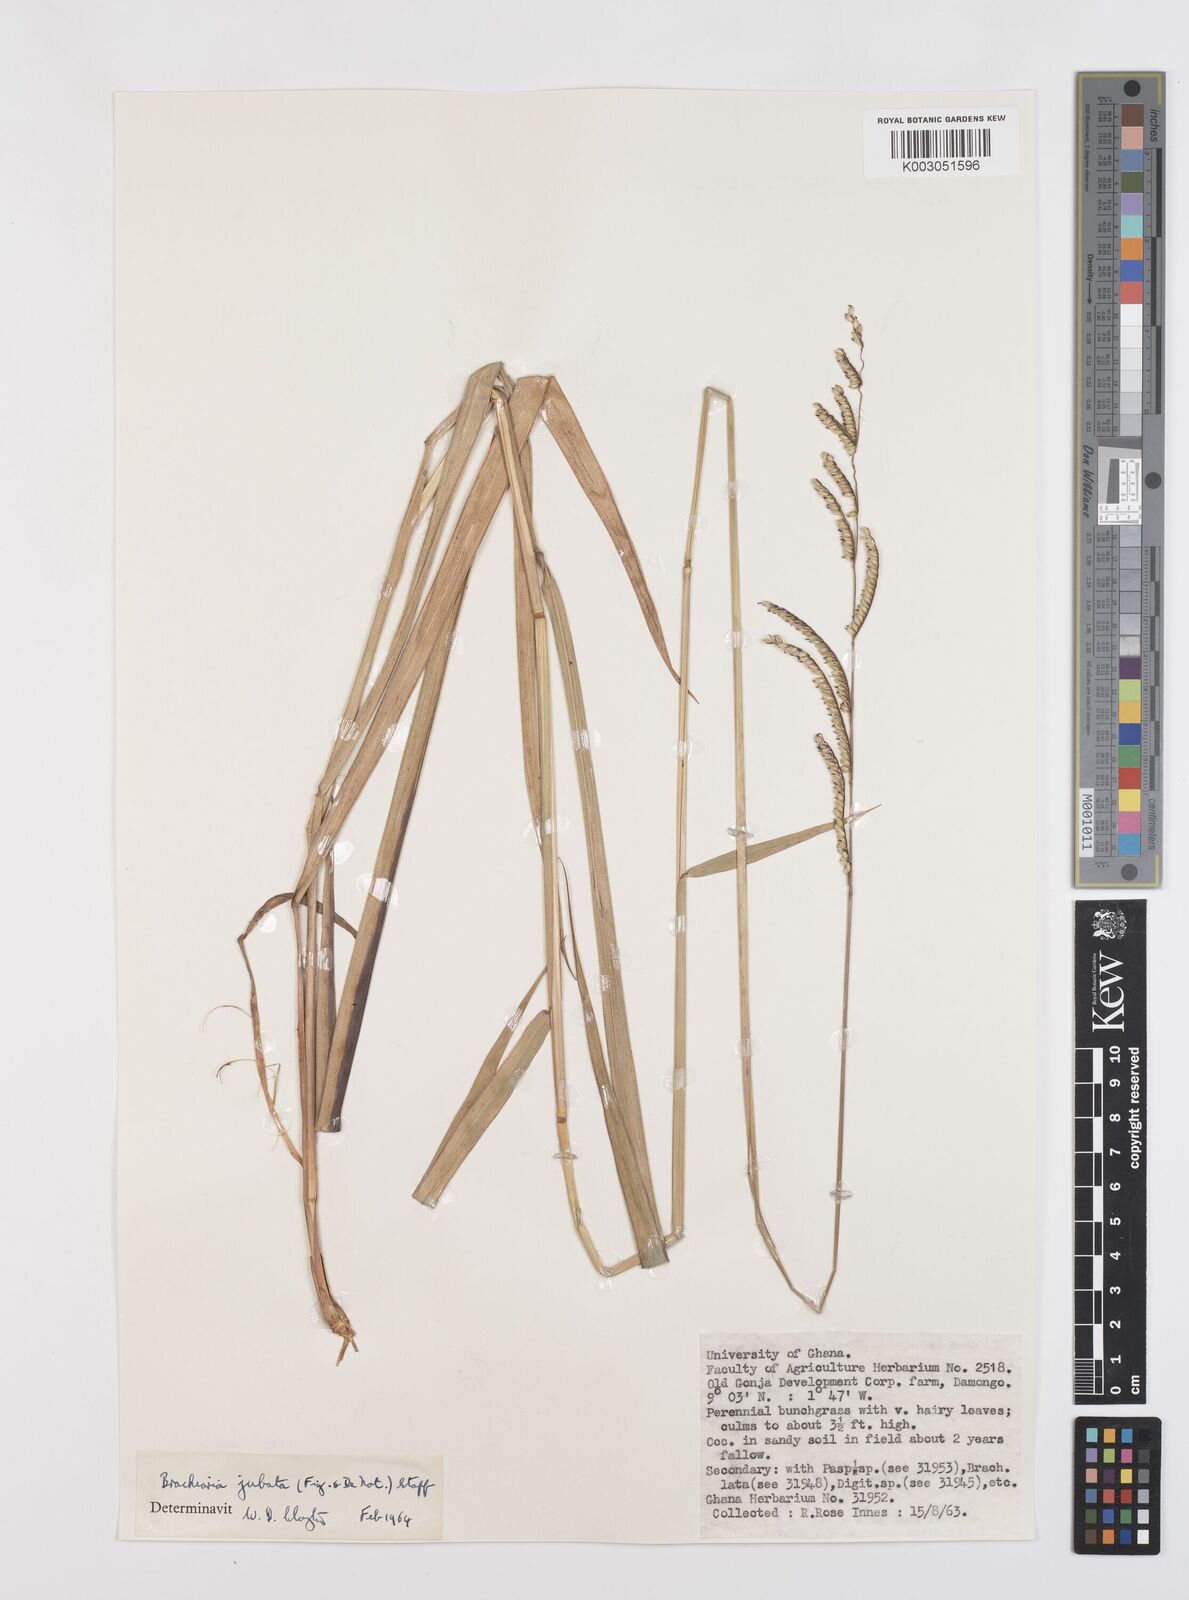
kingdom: Plantae
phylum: Tracheophyta
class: Liliopsida
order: Poales
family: Poaceae
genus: Urochloa
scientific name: Urochloa jubata
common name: Buffalograss
